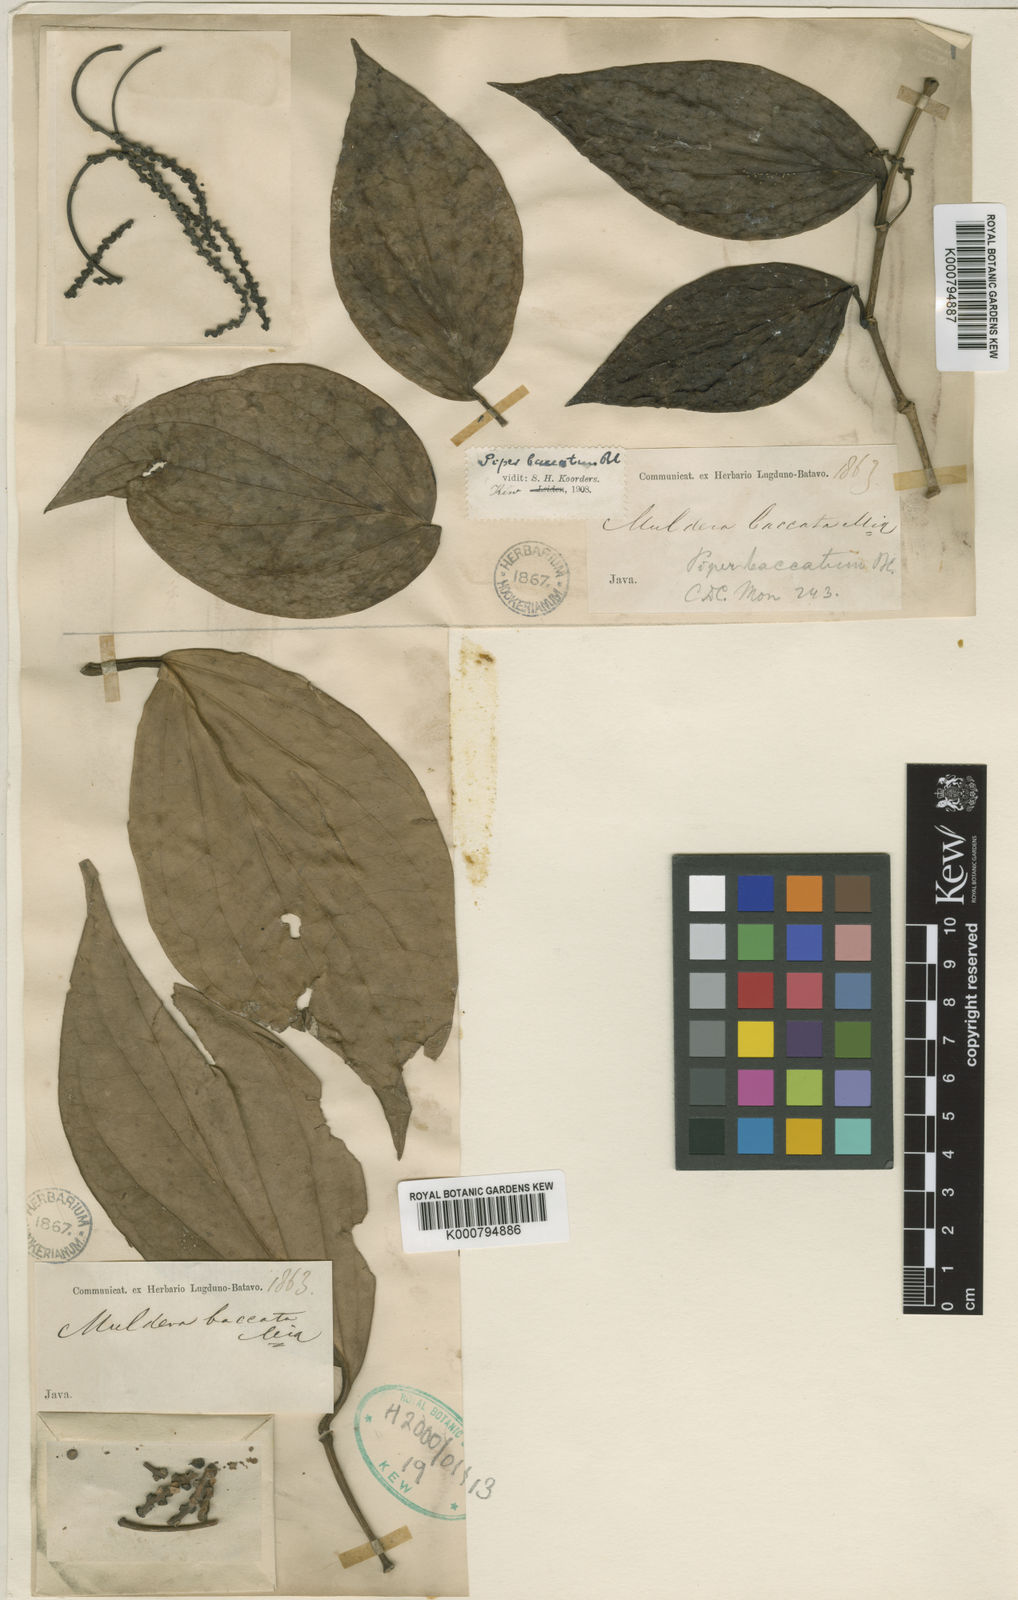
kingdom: Plantae
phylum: Tracheophyta
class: Magnoliopsida
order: Piperales
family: Piperaceae
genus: Piper
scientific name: Piper baccatum
